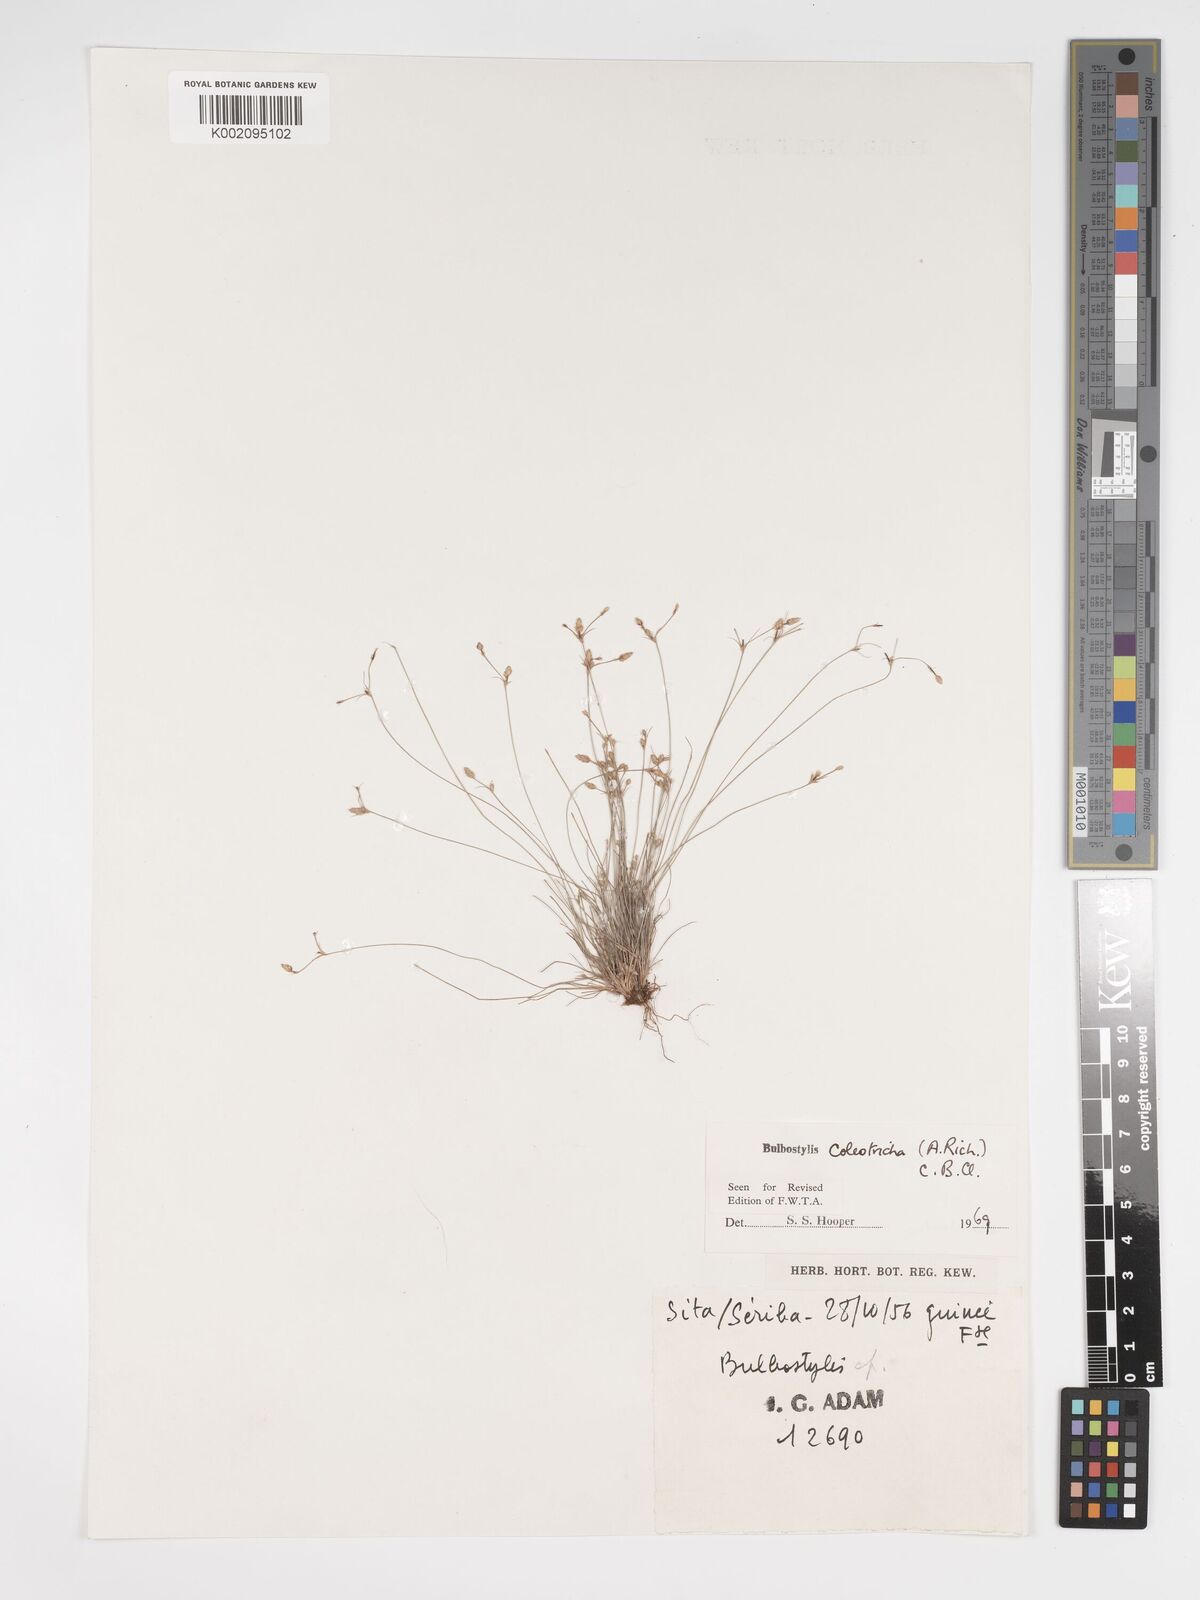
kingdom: Plantae
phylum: Tracheophyta
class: Liliopsida
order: Poales
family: Cyperaceae
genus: Bulbostylis
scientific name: Bulbostylis coleotricha
